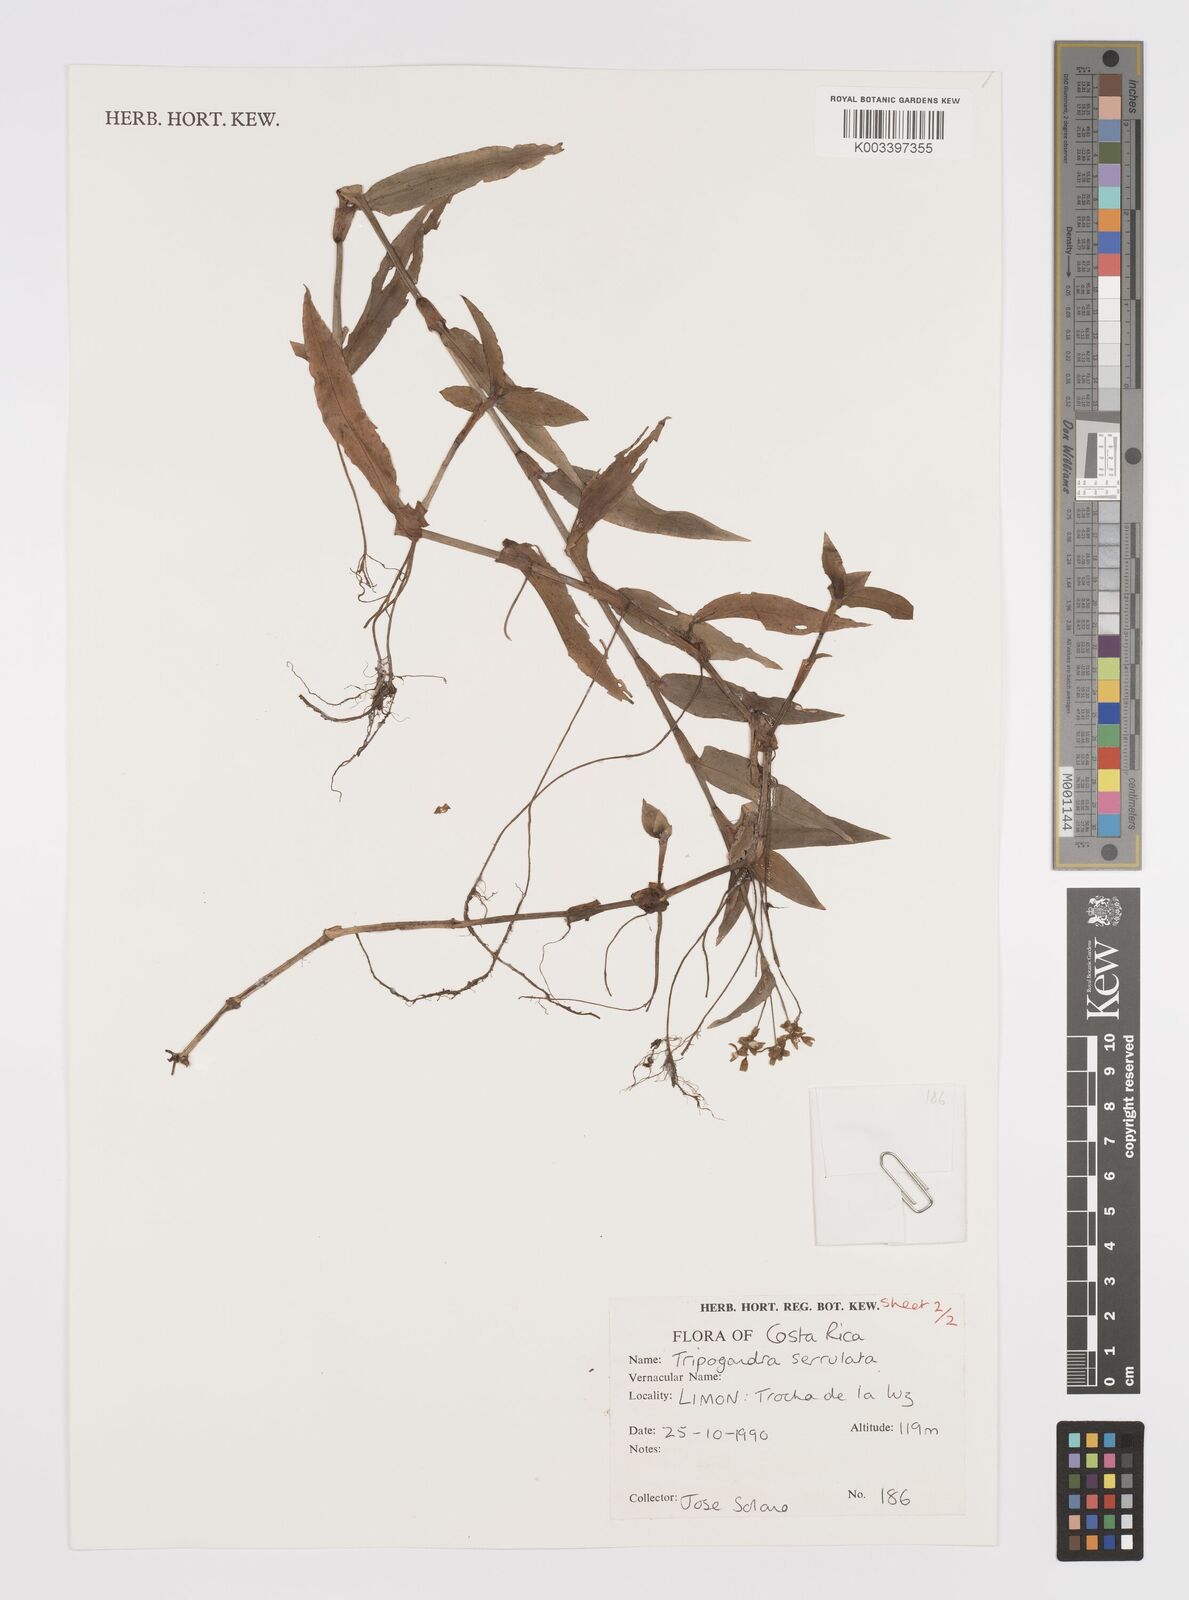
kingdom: Plantae
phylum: Tracheophyta
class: Liliopsida
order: Commelinales
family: Commelinaceae
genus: Callisia
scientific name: Callisia serrulata
